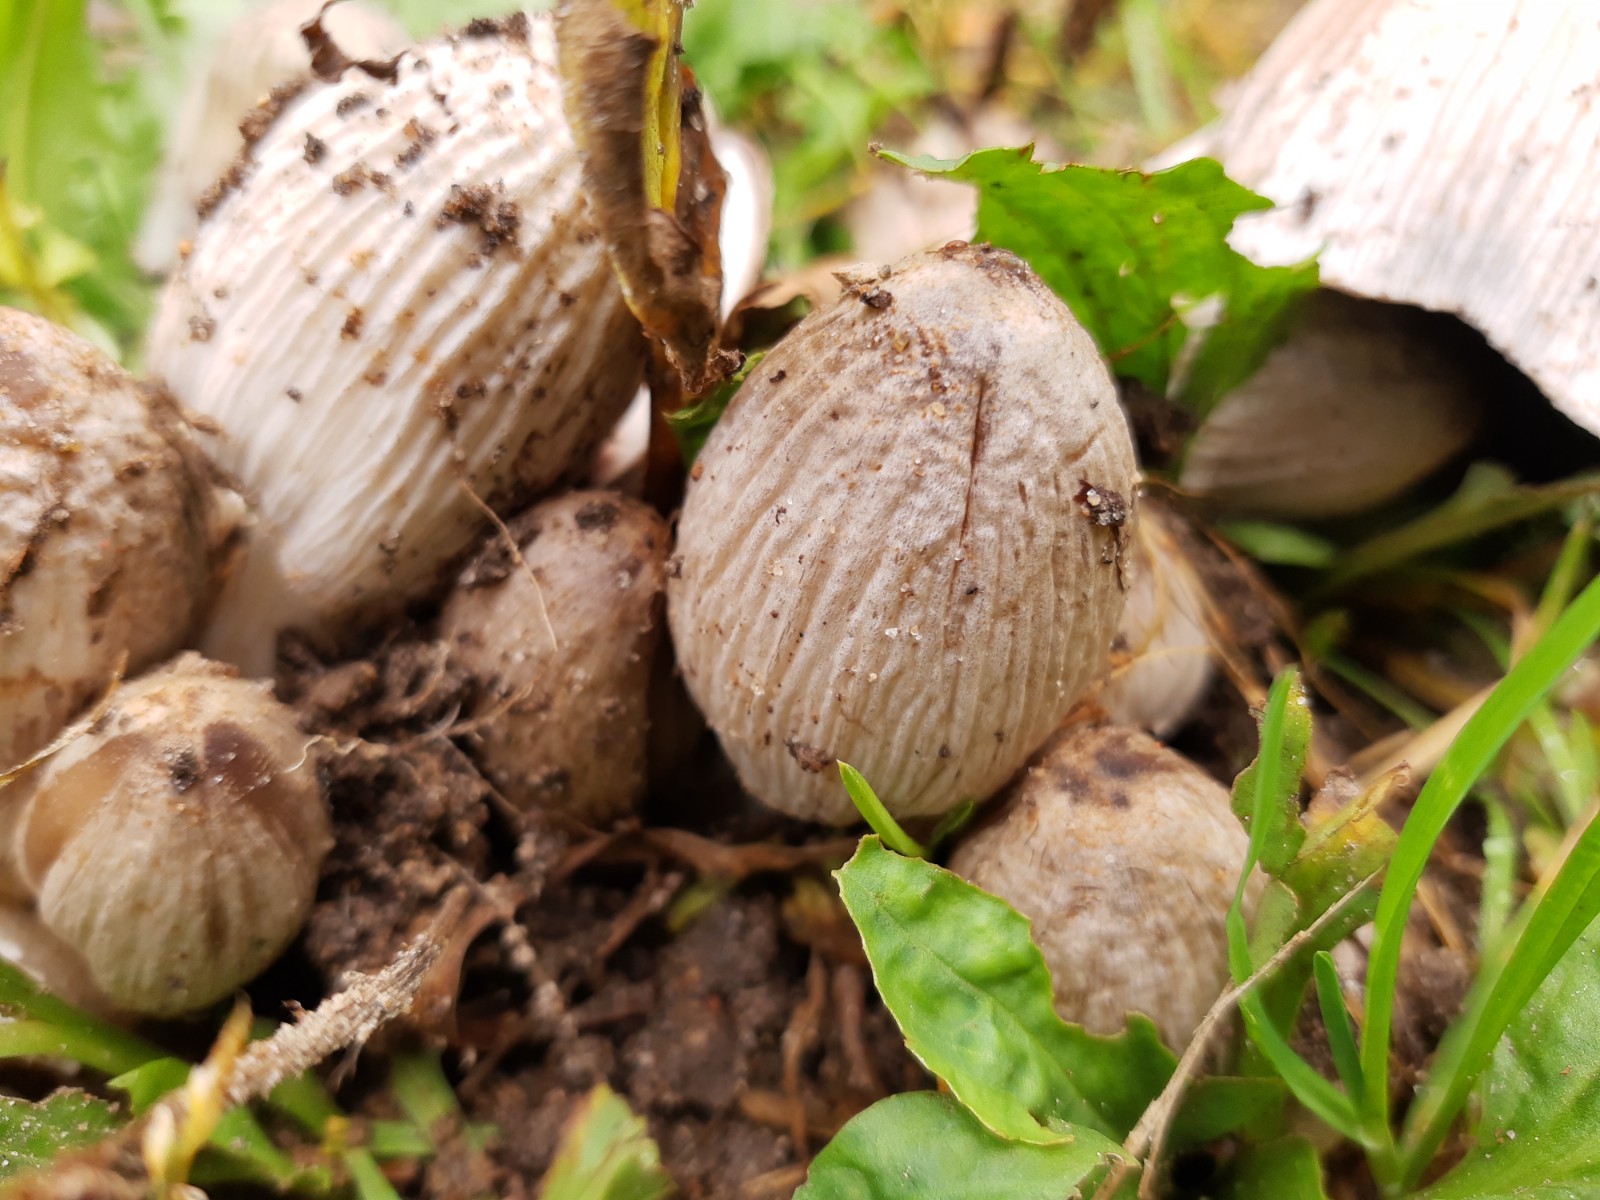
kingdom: Fungi
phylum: Basidiomycota
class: Agaricomycetes
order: Agaricales
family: Psathyrellaceae
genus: Coprinopsis
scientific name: Coprinopsis atramentaria
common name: almindelig blækhat
